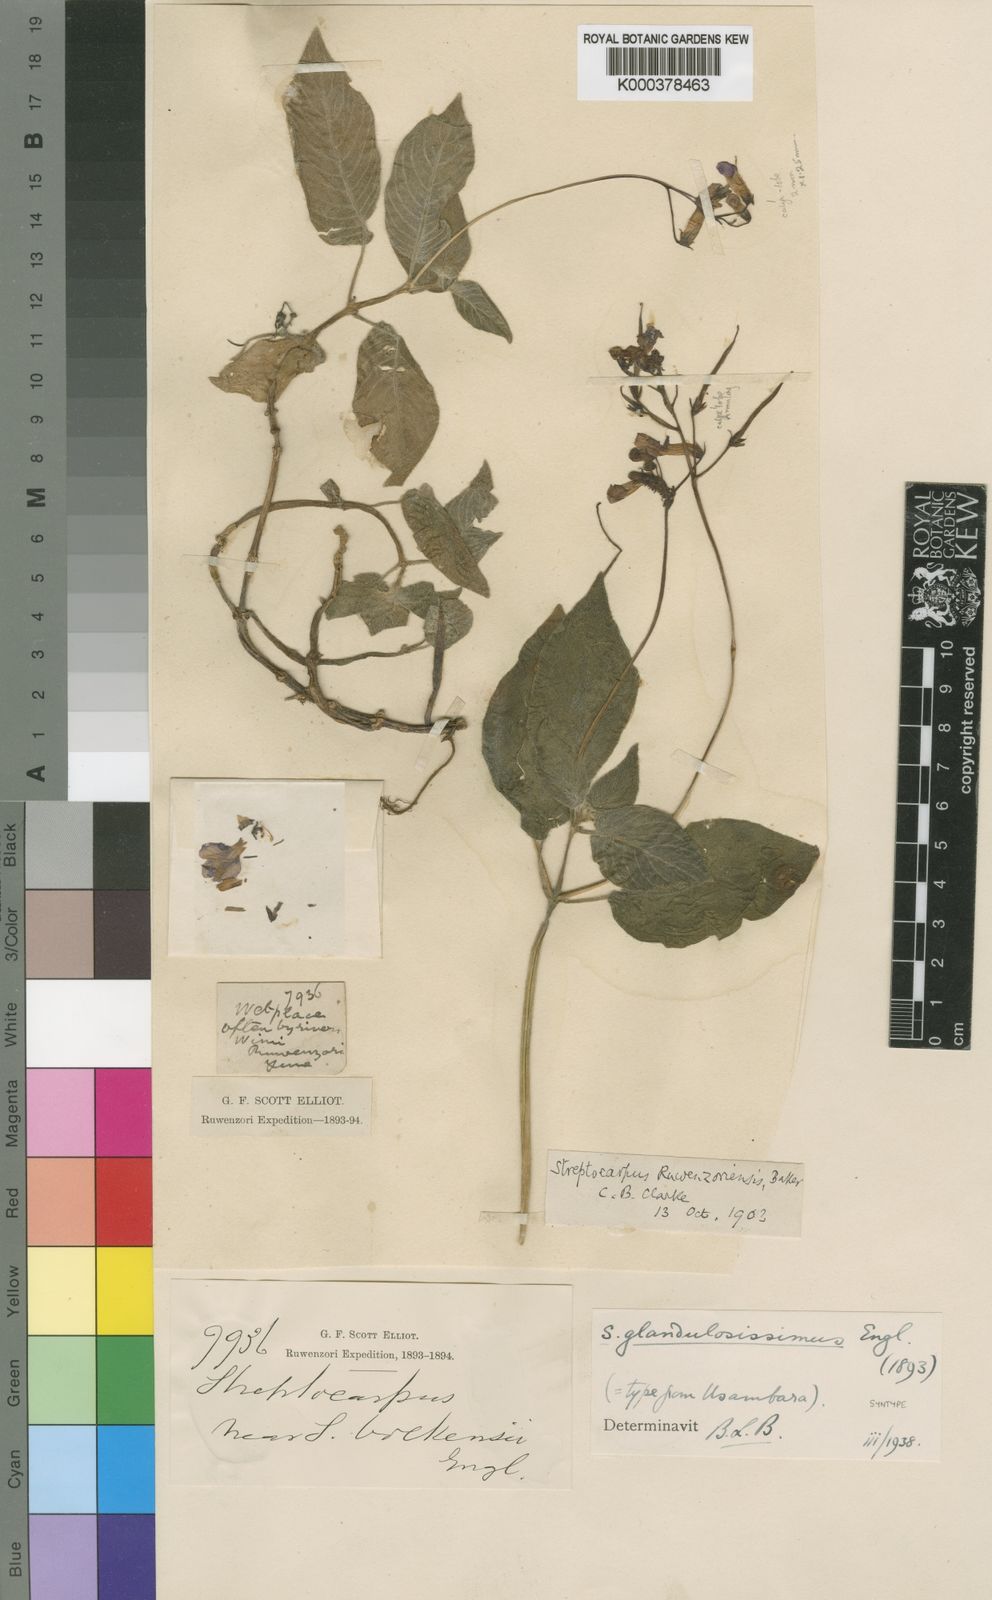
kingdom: Plantae
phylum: Tracheophyta
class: Magnoliopsida
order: Lamiales
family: Gesneriaceae
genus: Streptocarpus
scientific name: Streptocarpus glandulosissimus
